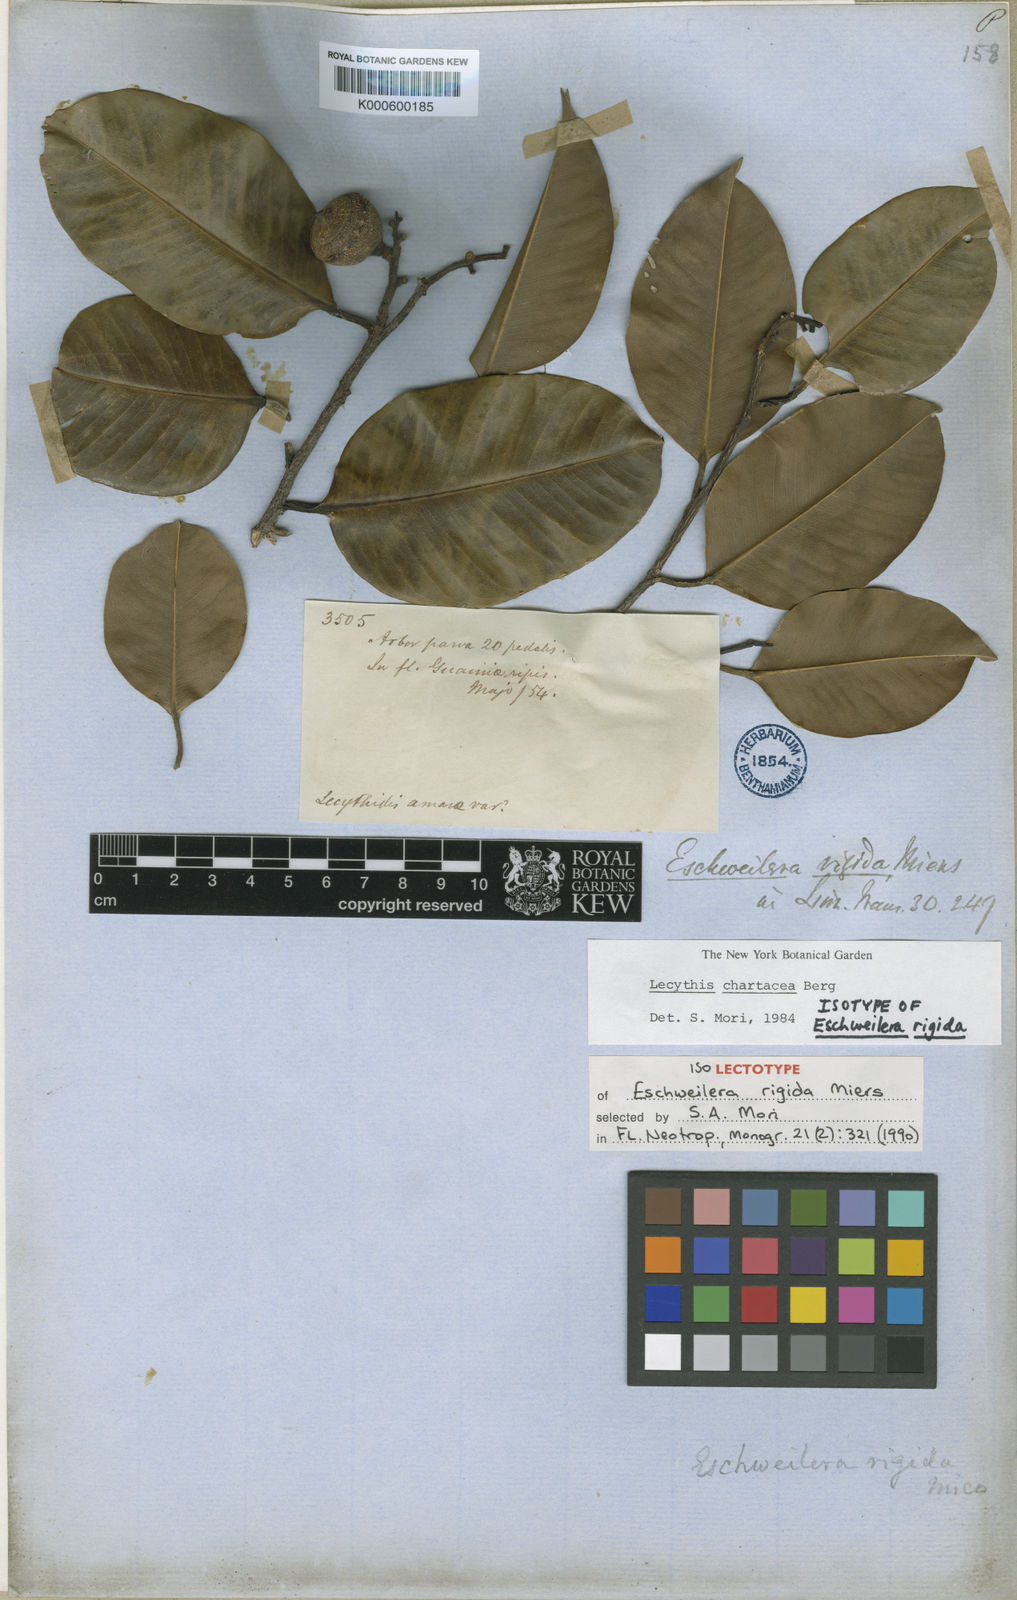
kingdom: Plantae
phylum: Tracheophyta
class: Magnoliopsida
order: Ericales
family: Lecythidaceae
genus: Lecythis
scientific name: Lecythis chartacea
